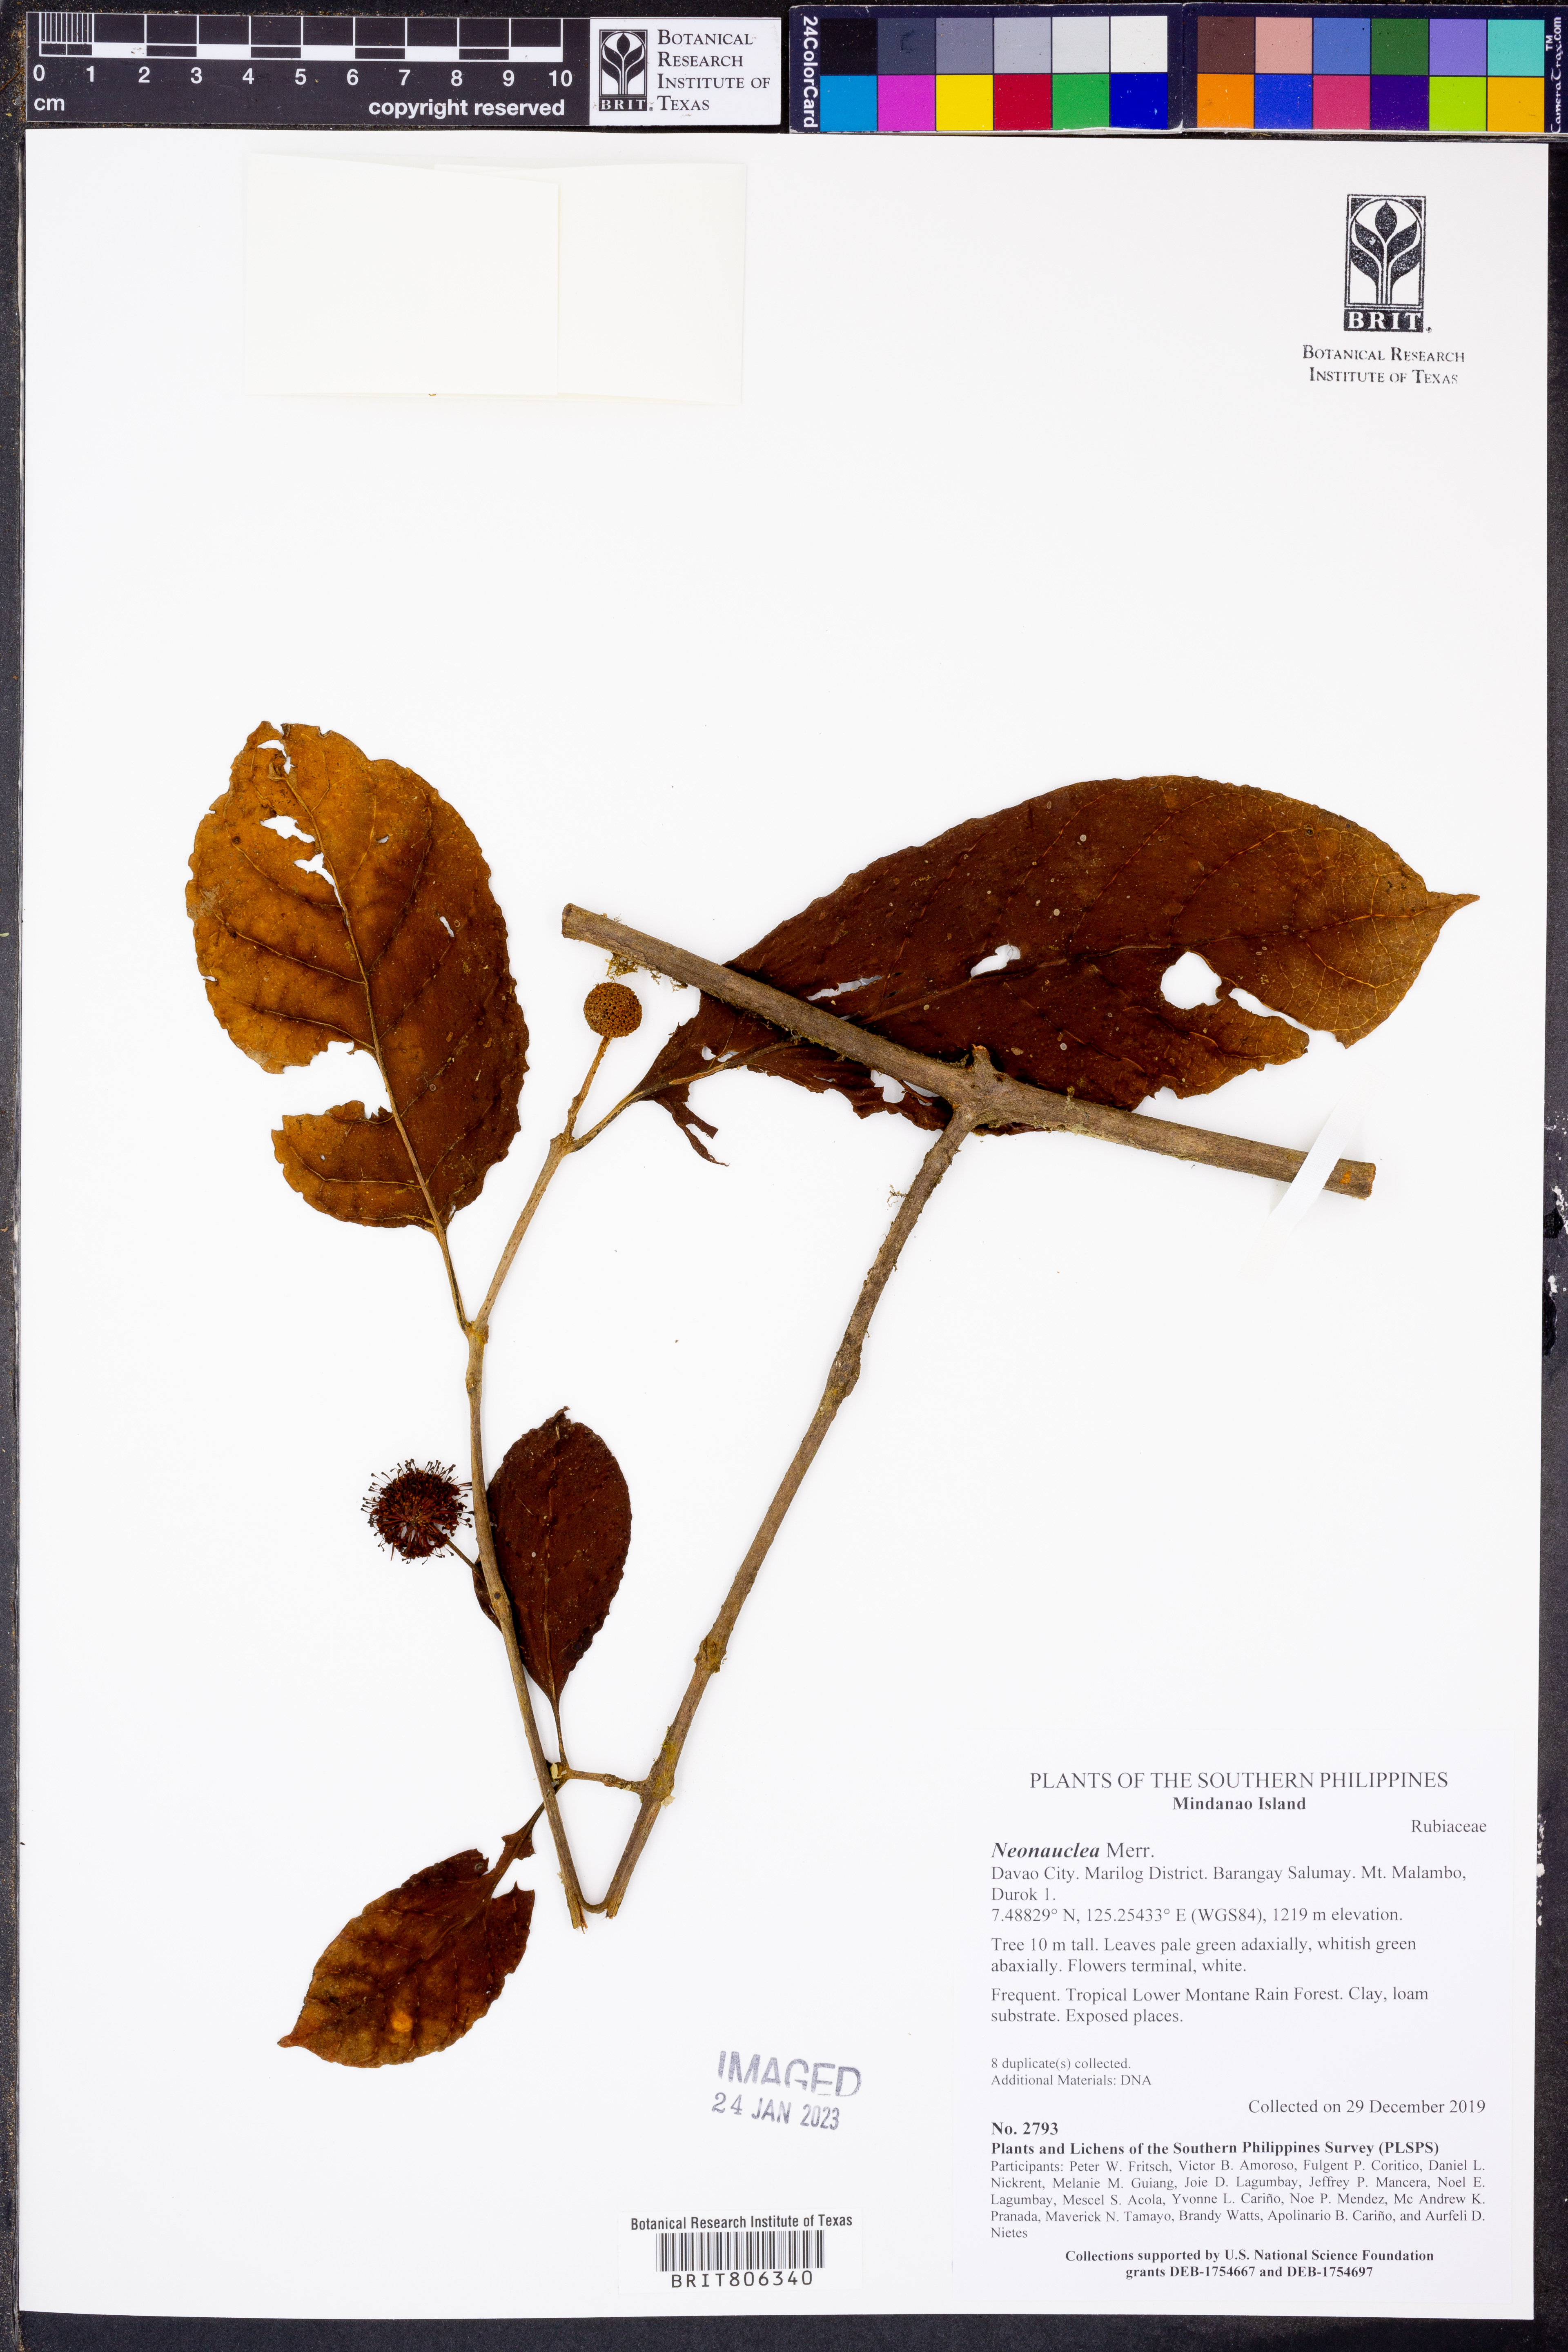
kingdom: Plantae
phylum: Tracheophyta
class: Magnoliopsida
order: Gentianales
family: Rubiaceae
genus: Neonauclea
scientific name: Neonauclea
